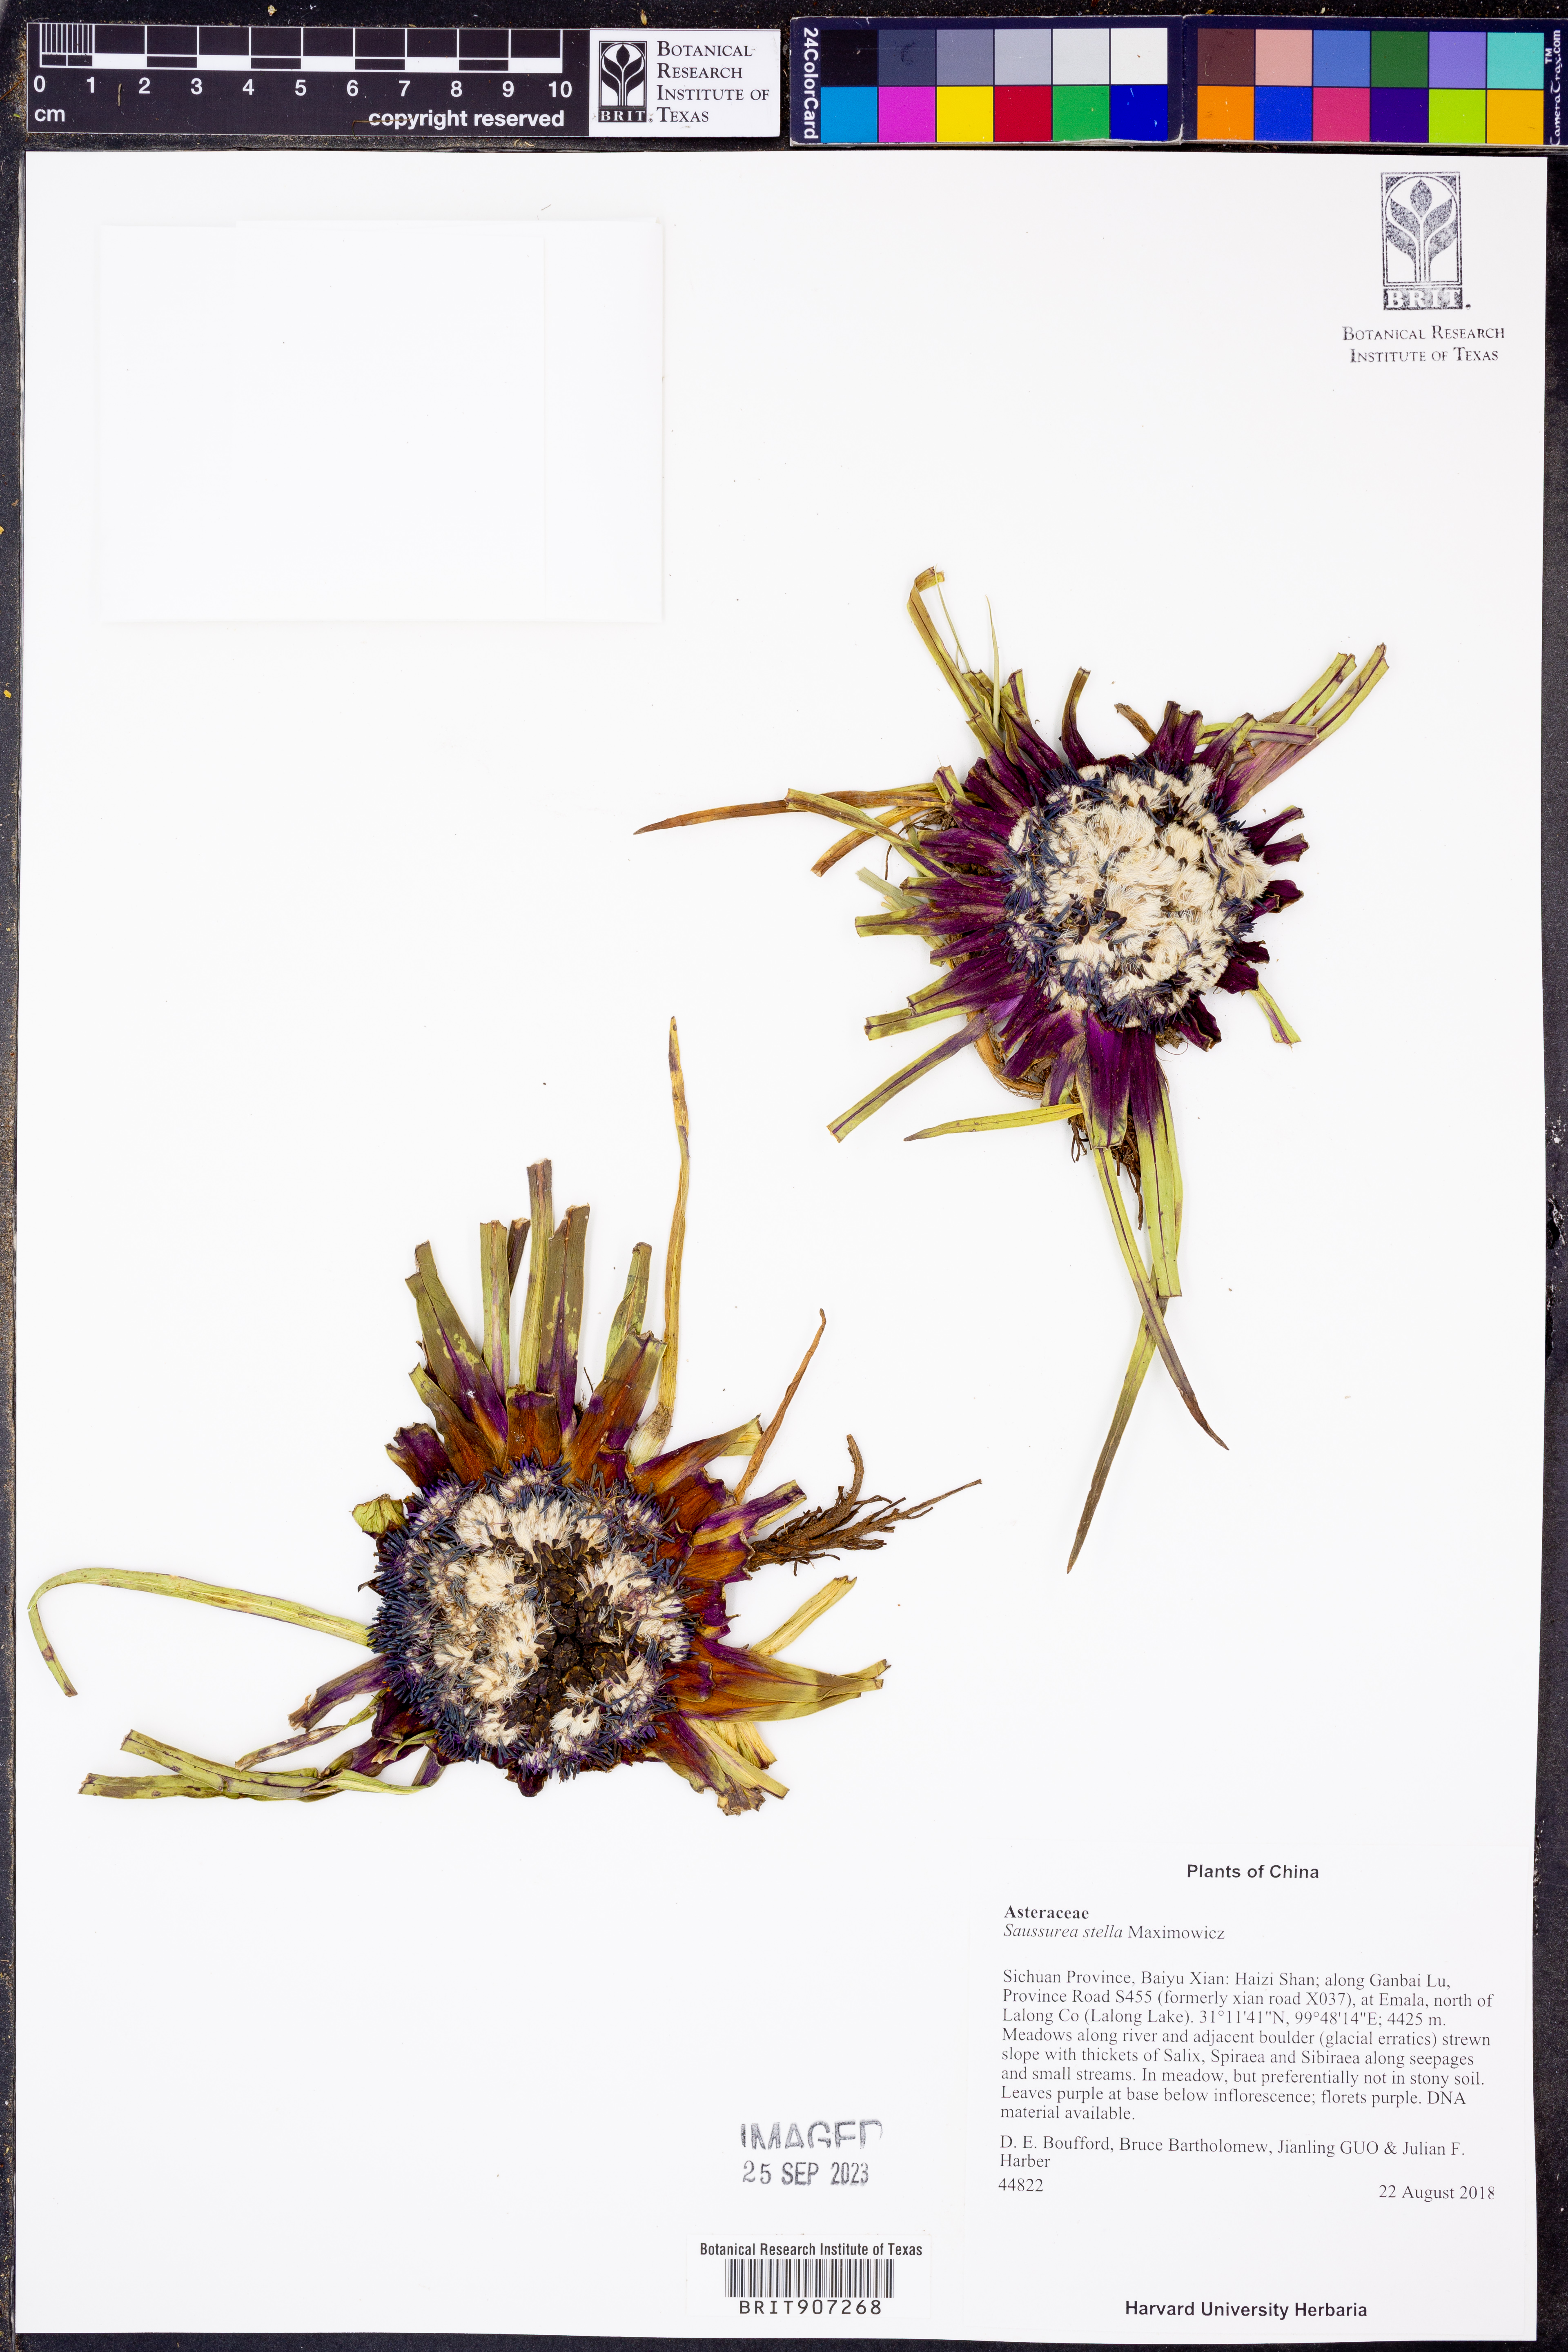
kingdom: Plantae
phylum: Tracheophyta
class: Magnoliopsida
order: Asterales
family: Asteraceae
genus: Saussurea
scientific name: Saussurea stella
